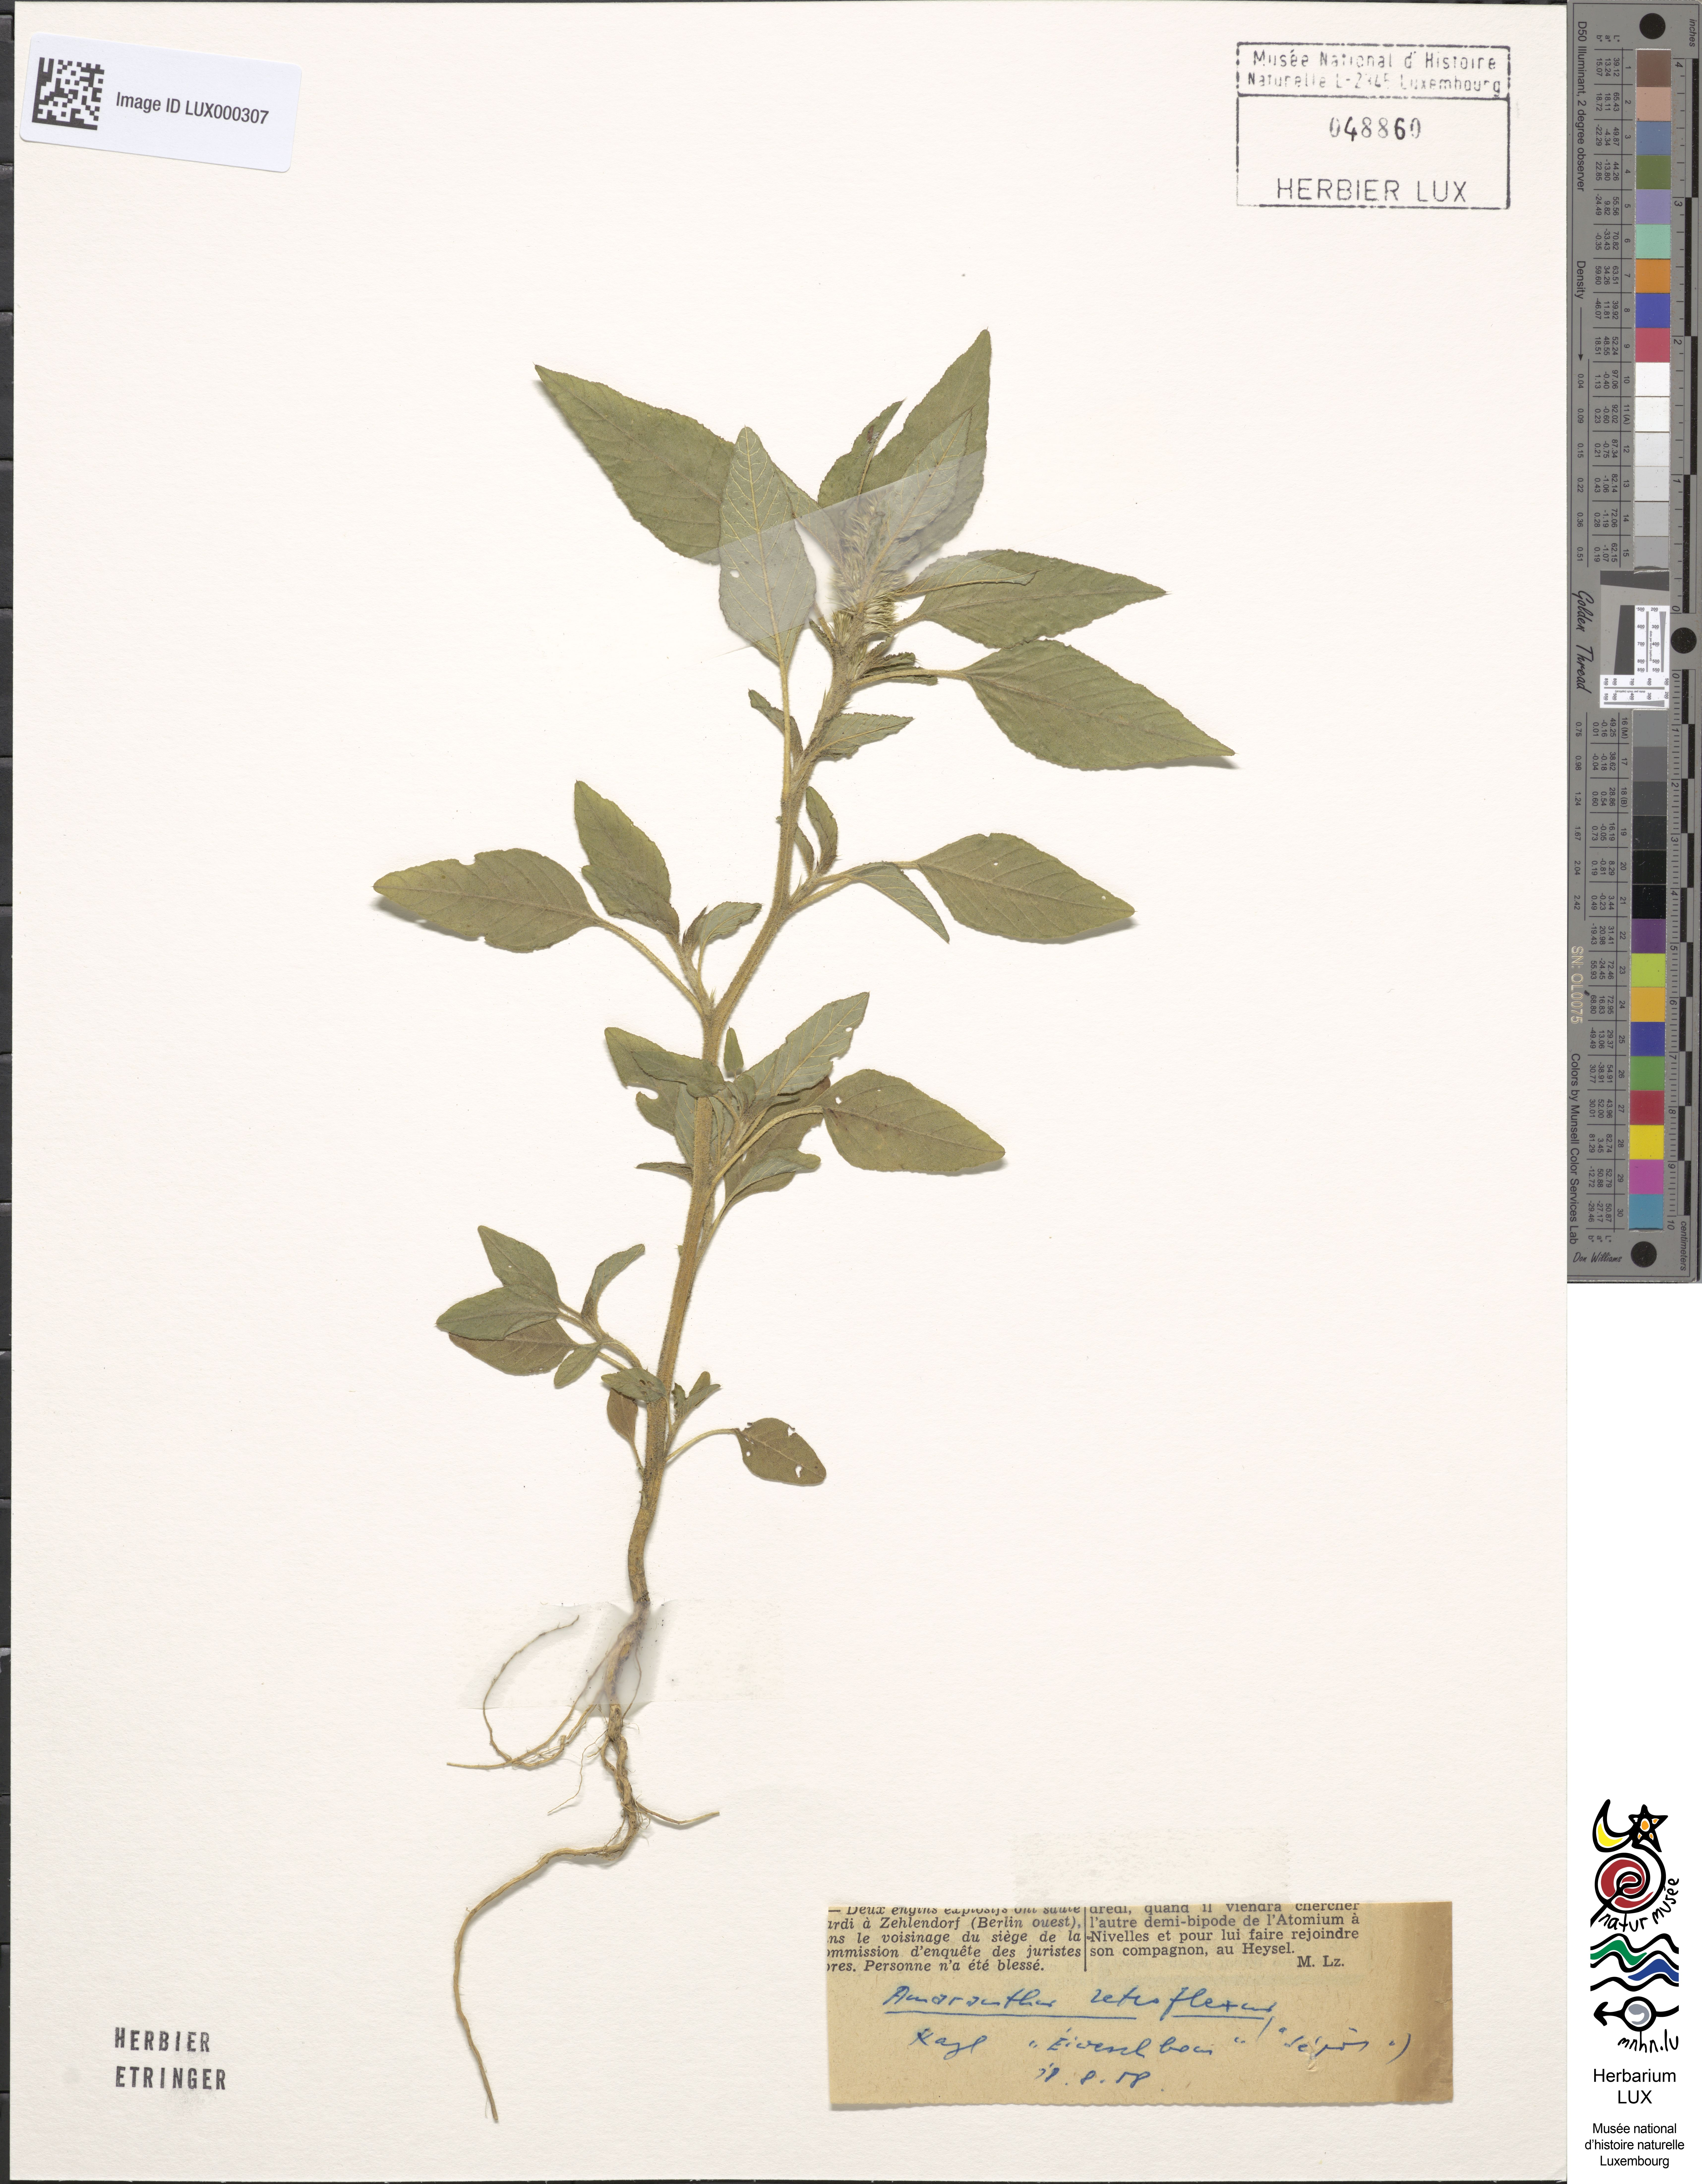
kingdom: Plantae
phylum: Tracheophyta
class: Magnoliopsida
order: Caryophyllales
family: Amaranthaceae
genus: Amaranthus
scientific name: Amaranthus retroflexus
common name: Redroot amaranth
